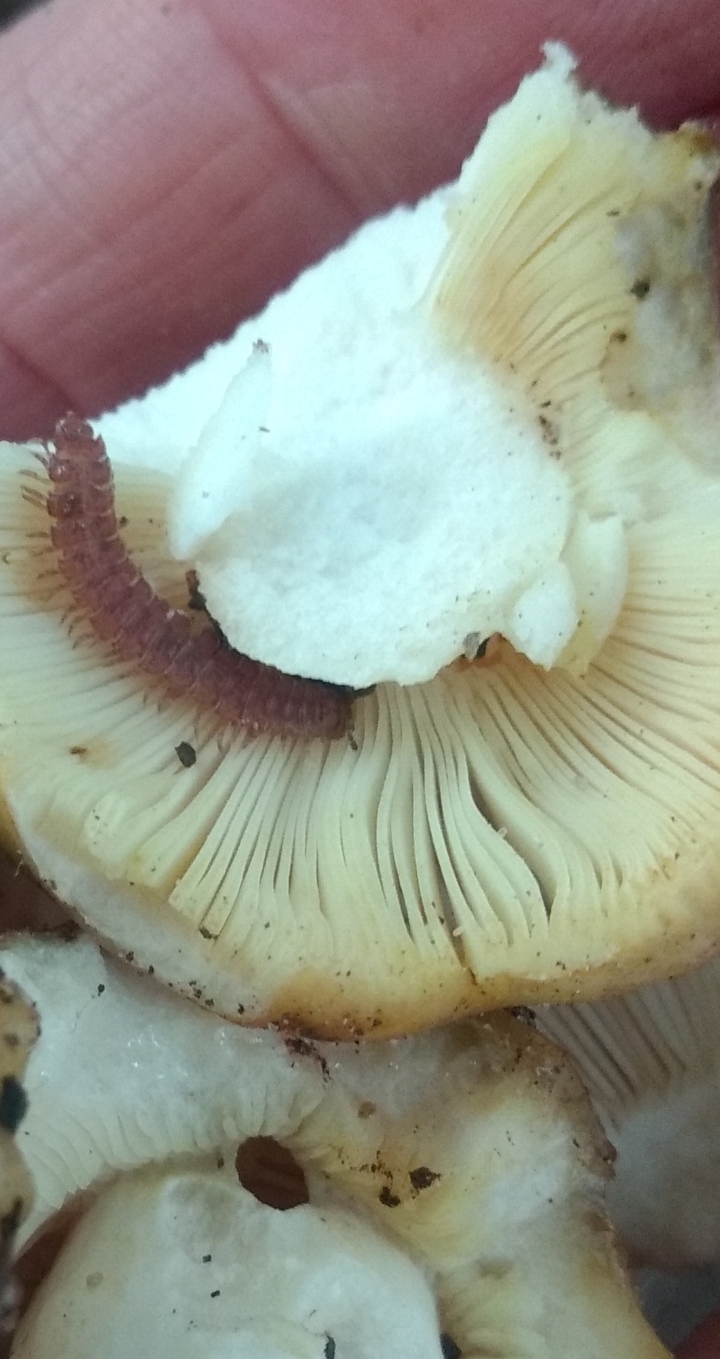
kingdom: Fungi
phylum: Basidiomycota
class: Agaricomycetes
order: Russulales
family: Russulaceae
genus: Russula
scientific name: Russula
